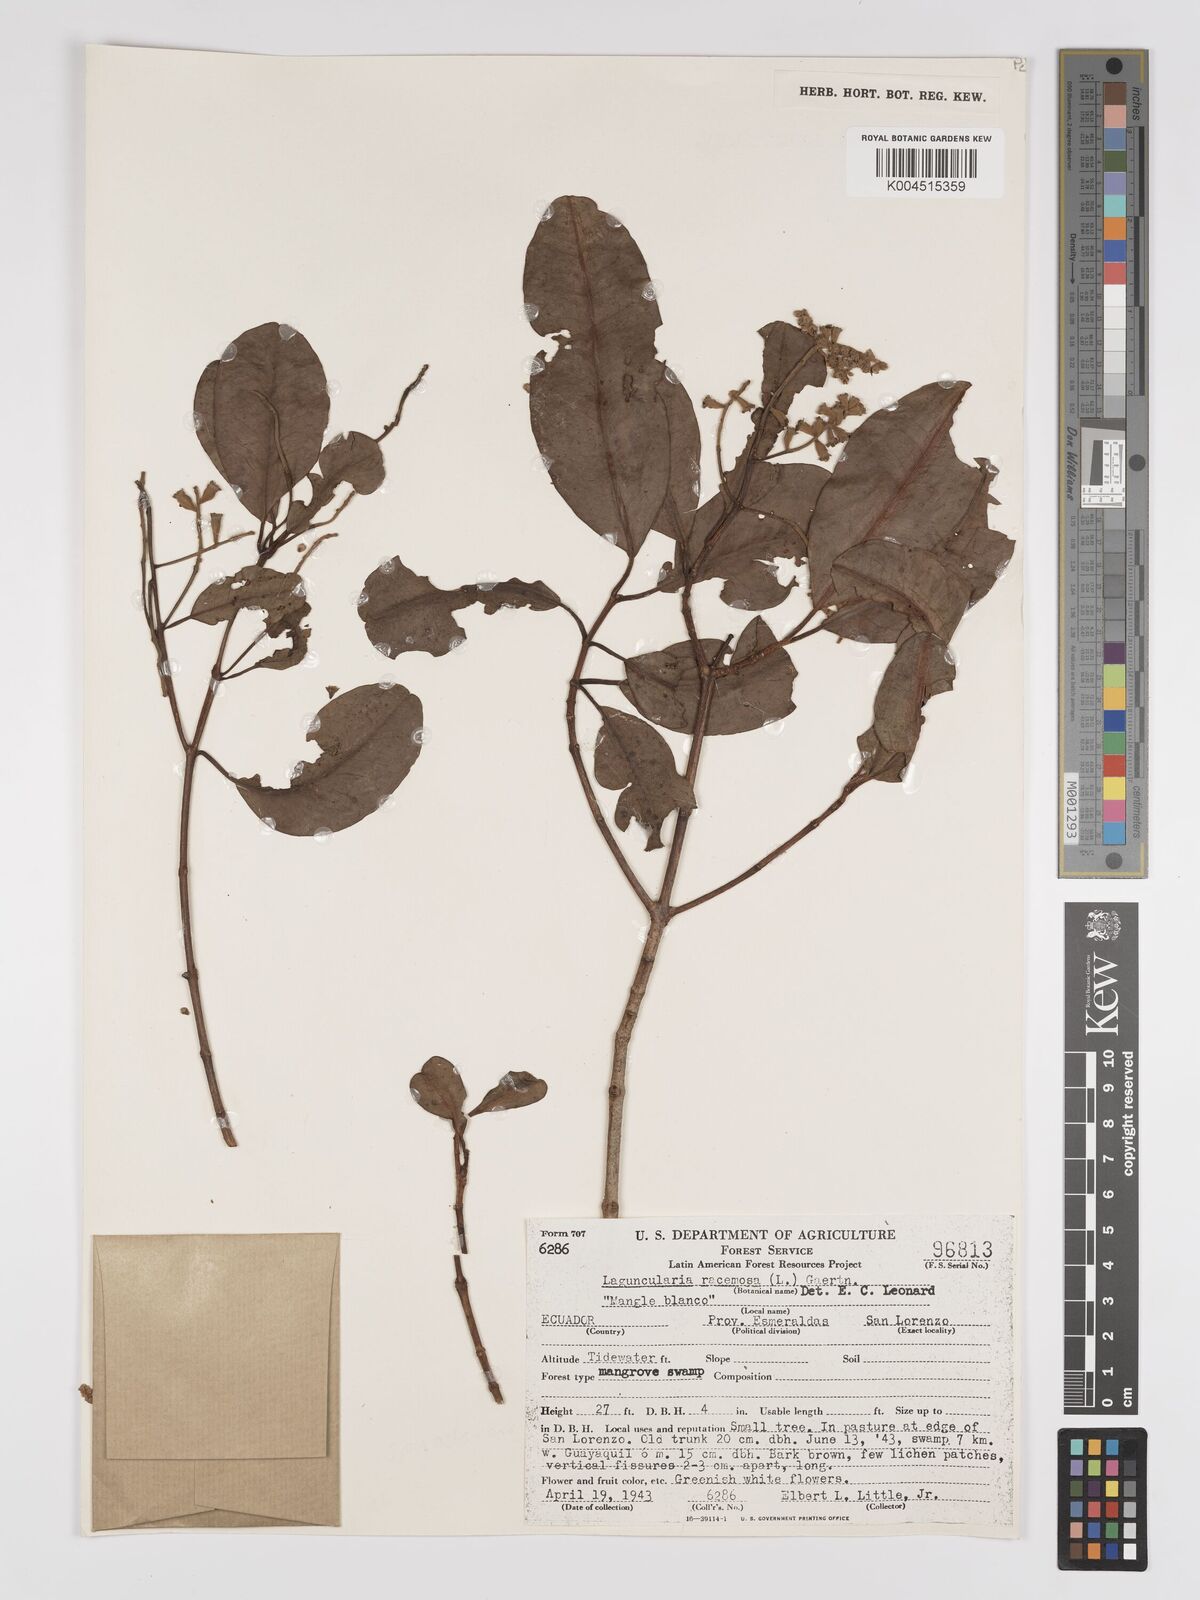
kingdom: Plantae
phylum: Tracheophyta
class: Magnoliopsida
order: Myrtales
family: Combretaceae
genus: Laguncularia
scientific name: Laguncularia racemosa
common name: White mangrove
